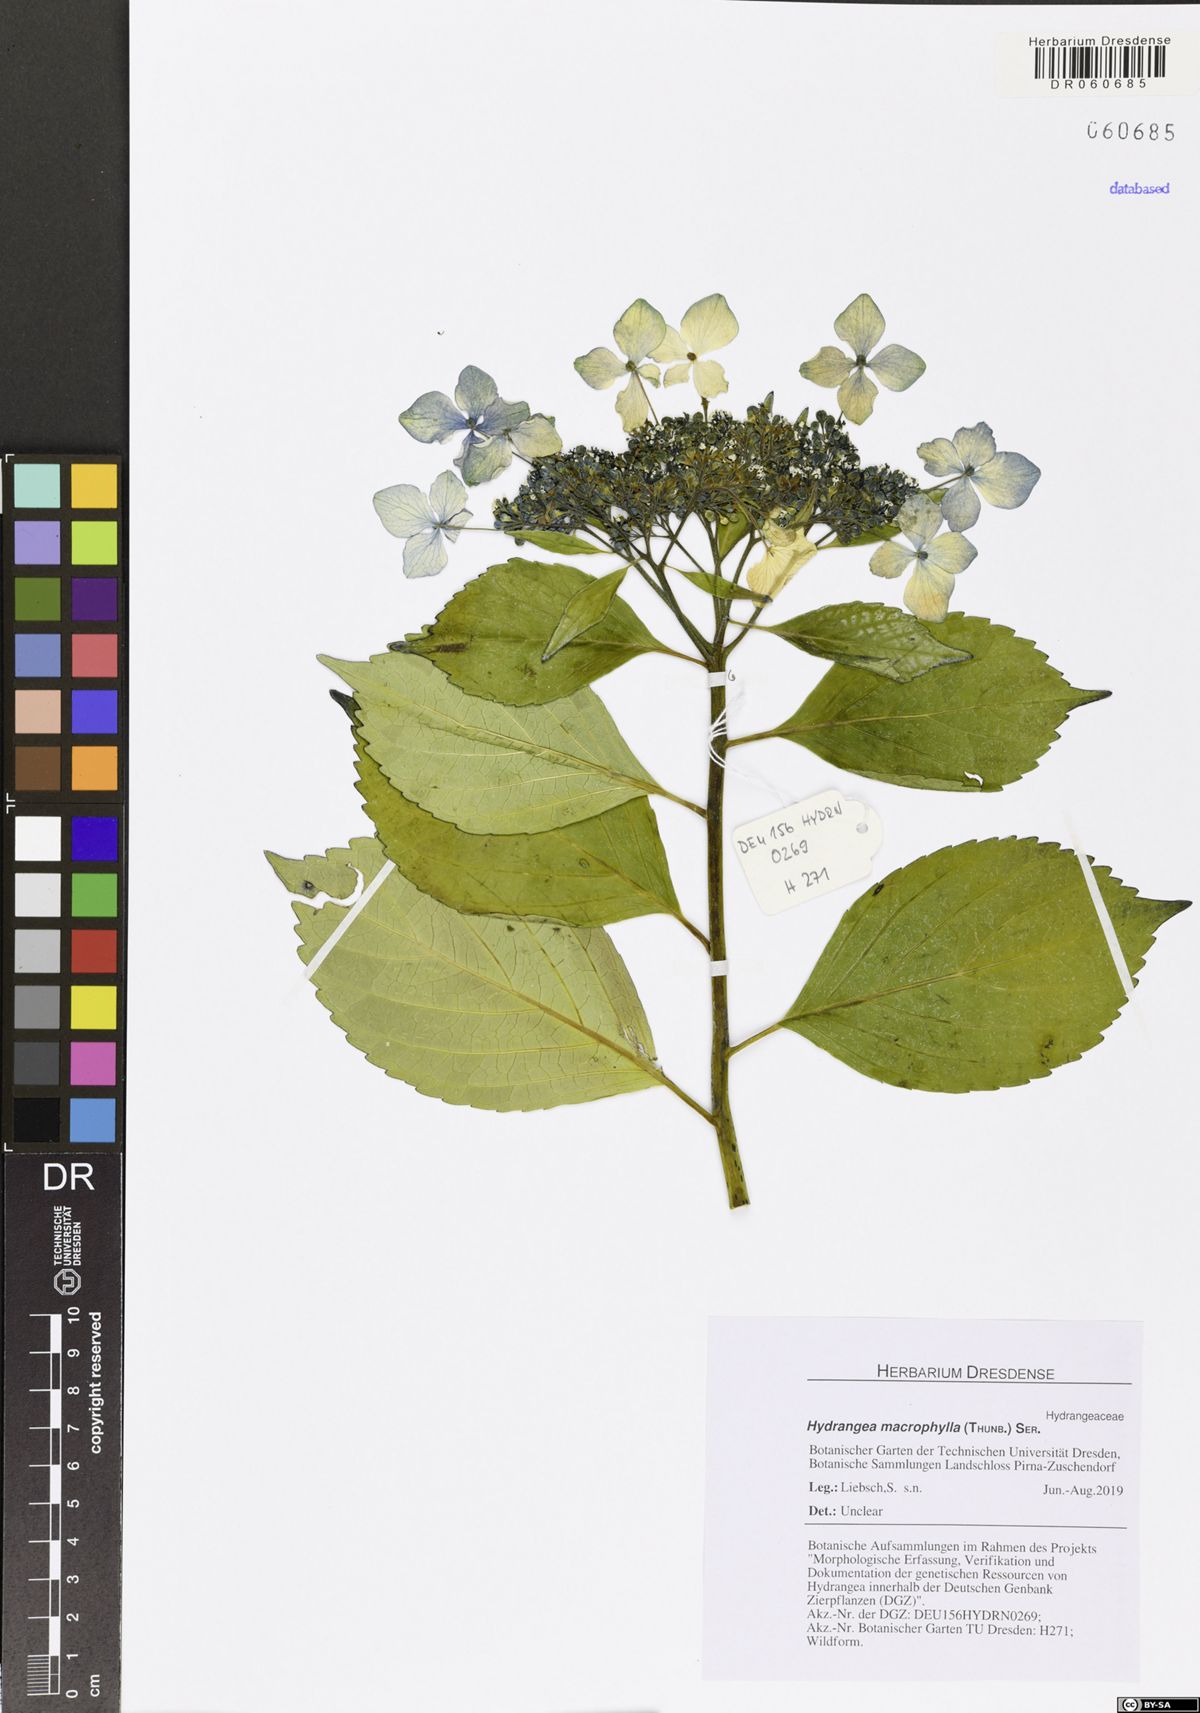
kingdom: Plantae
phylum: Tracheophyta
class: Magnoliopsida
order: Cornales
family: Hydrangeaceae
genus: Hydrangea
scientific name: Hydrangea macrophylla
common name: Hydrangea
